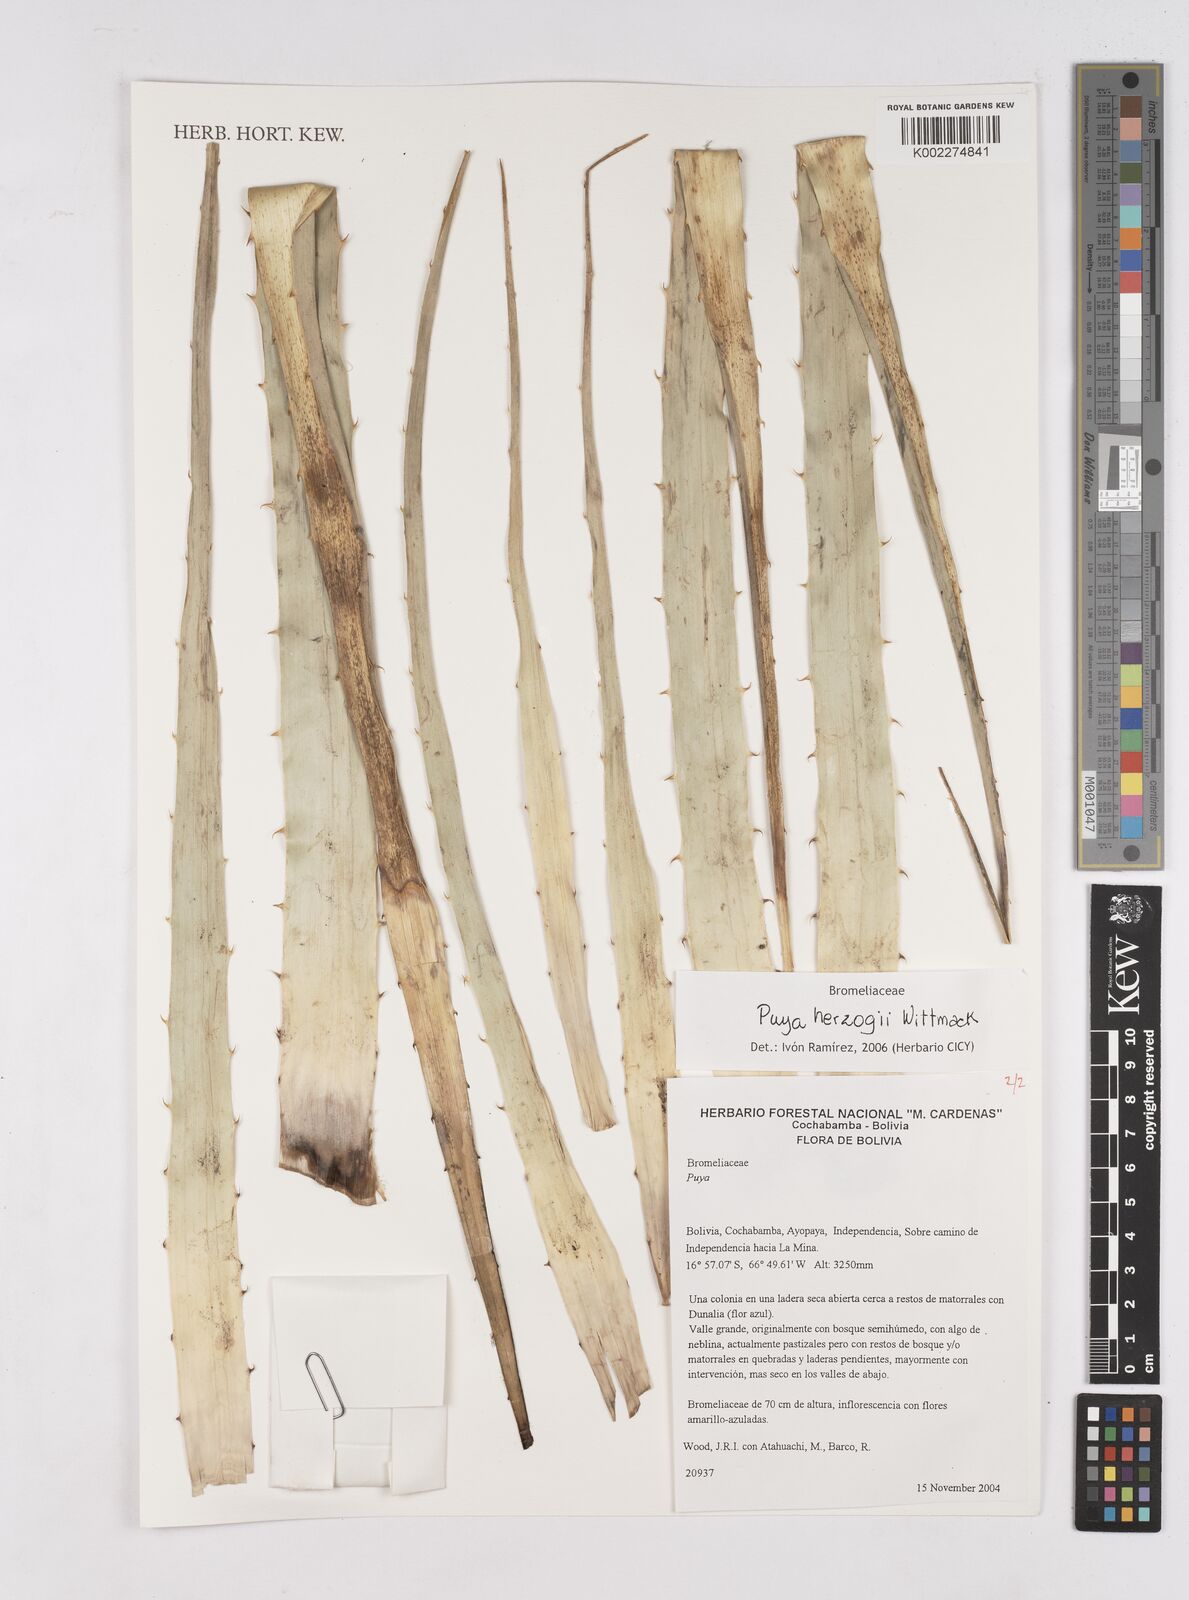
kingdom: Plantae
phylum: Tracheophyta
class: Liliopsida
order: Poales
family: Bromeliaceae
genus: Puya
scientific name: Puya herzogii
